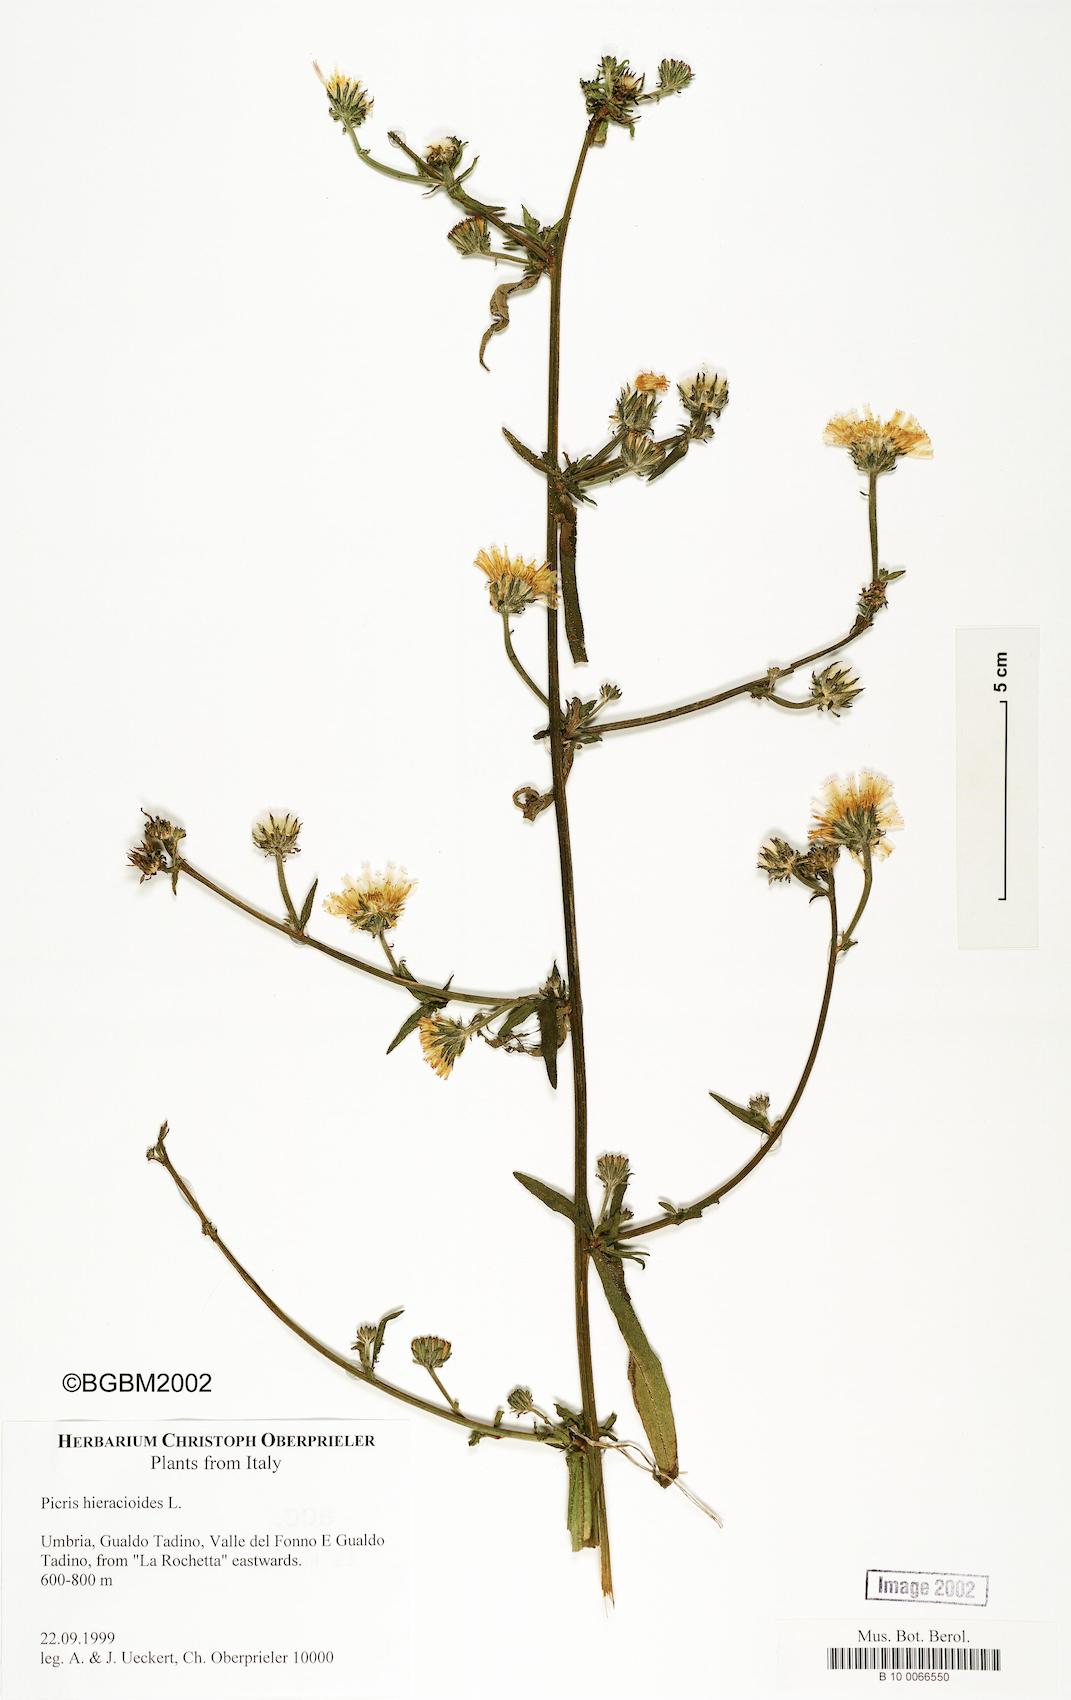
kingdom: Plantae
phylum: Tracheophyta
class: Magnoliopsida
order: Asterales
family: Asteraceae
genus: Picris
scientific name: Picris hieracioides
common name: Hawkweed oxtongue
